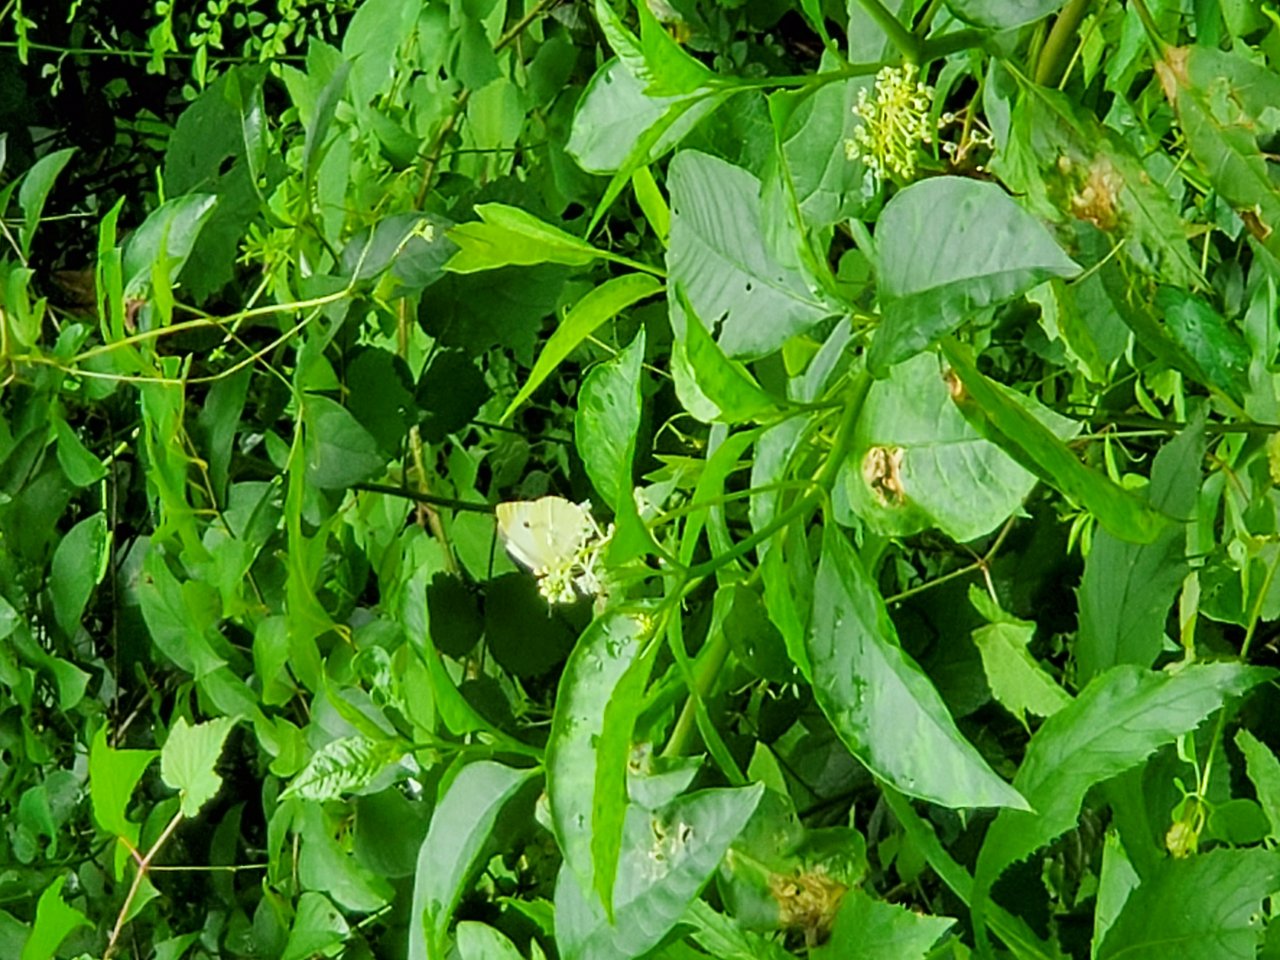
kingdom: Animalia
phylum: Arthropoda
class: Insecta
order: Lepidoptera
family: Pieridae
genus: Pieris
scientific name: Pieris rapae
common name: Cabbage White
